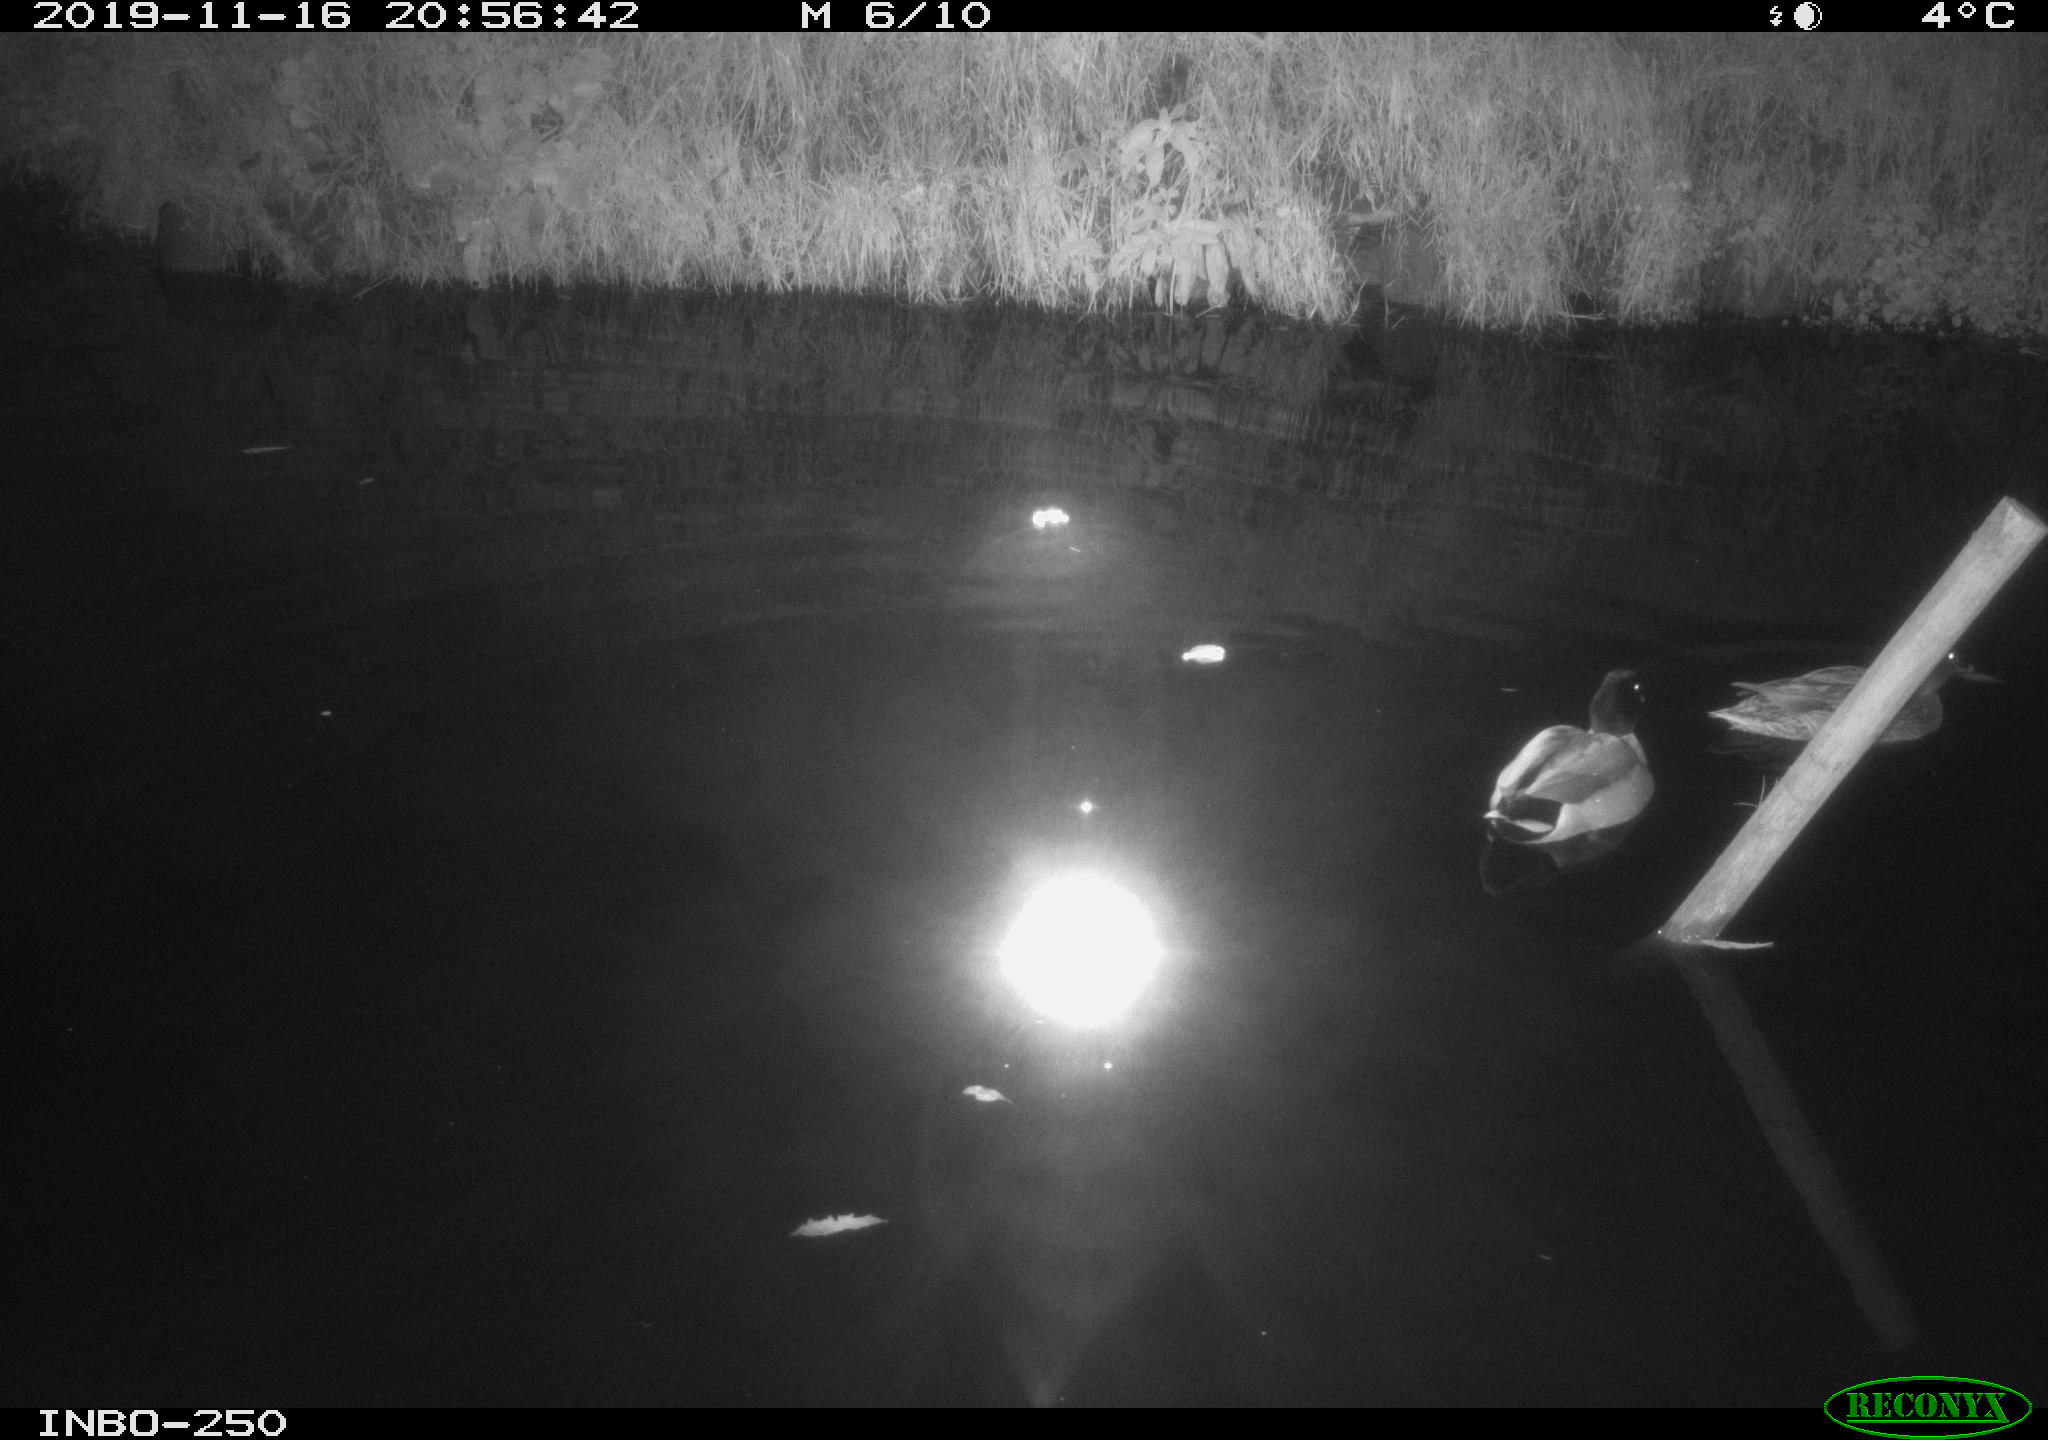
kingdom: Animalia
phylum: Chordata
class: Aves
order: Anseriformes
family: Anatidae
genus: Anas
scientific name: Anas platyrhynchos
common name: Mallard
